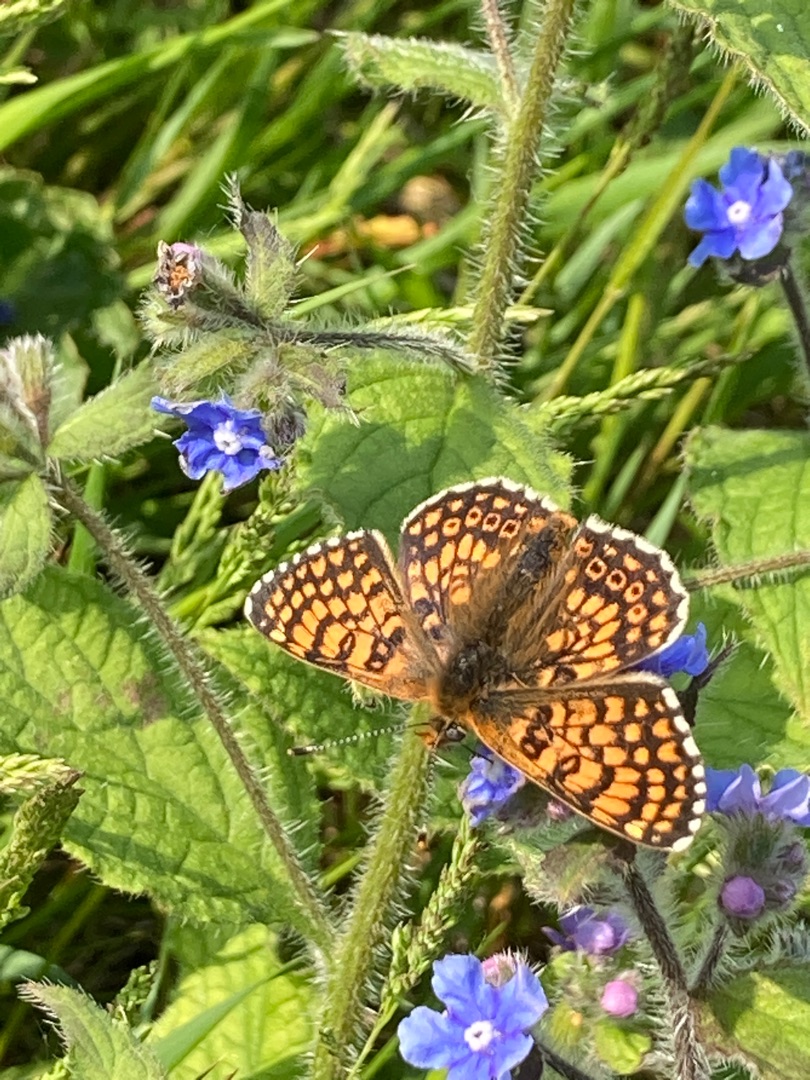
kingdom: Animalia
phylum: Arthropoda
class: Insecta
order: Lepidoptera
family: Nymphalidae
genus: Melitaea
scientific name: Melitaea cinxia
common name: Okkergul pletvinge
